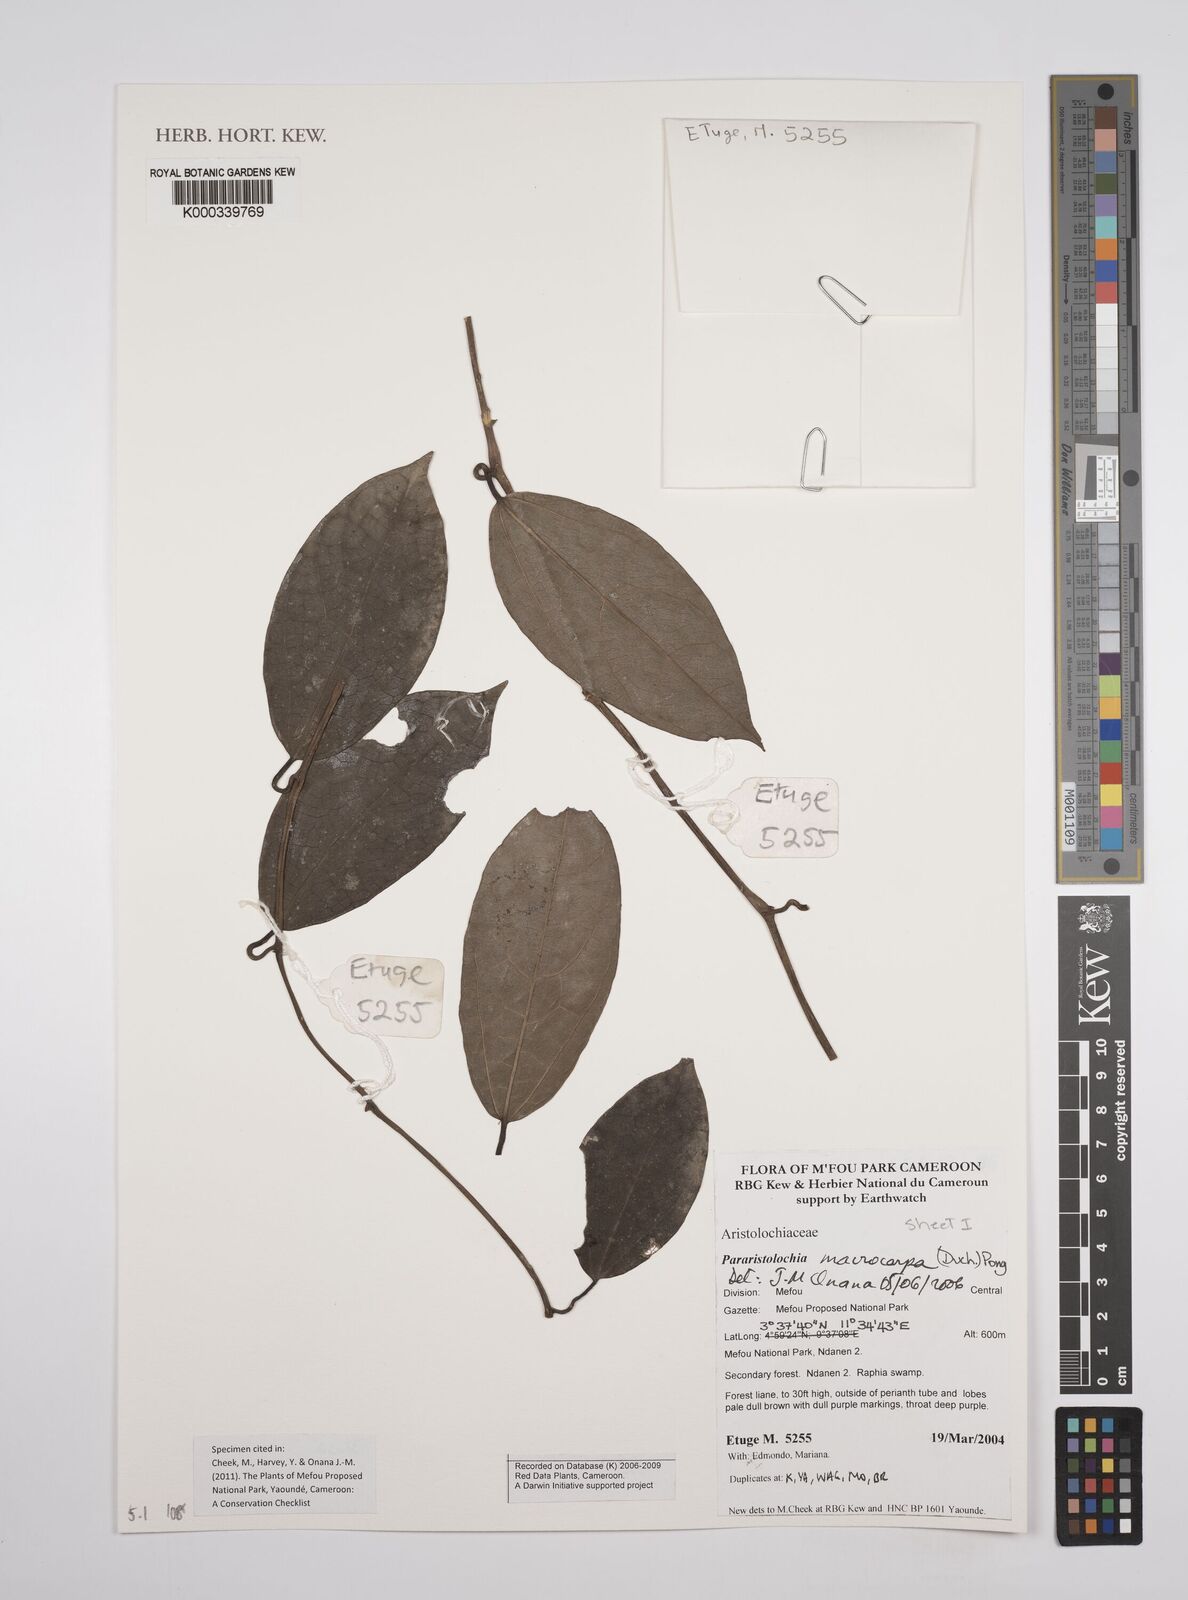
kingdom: Plantae
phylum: Tracheophyta
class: Magnoliopsida
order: Piperales
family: Aristolochiaceae
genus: Aristolochia
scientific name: Aristolochia macrocarpa
